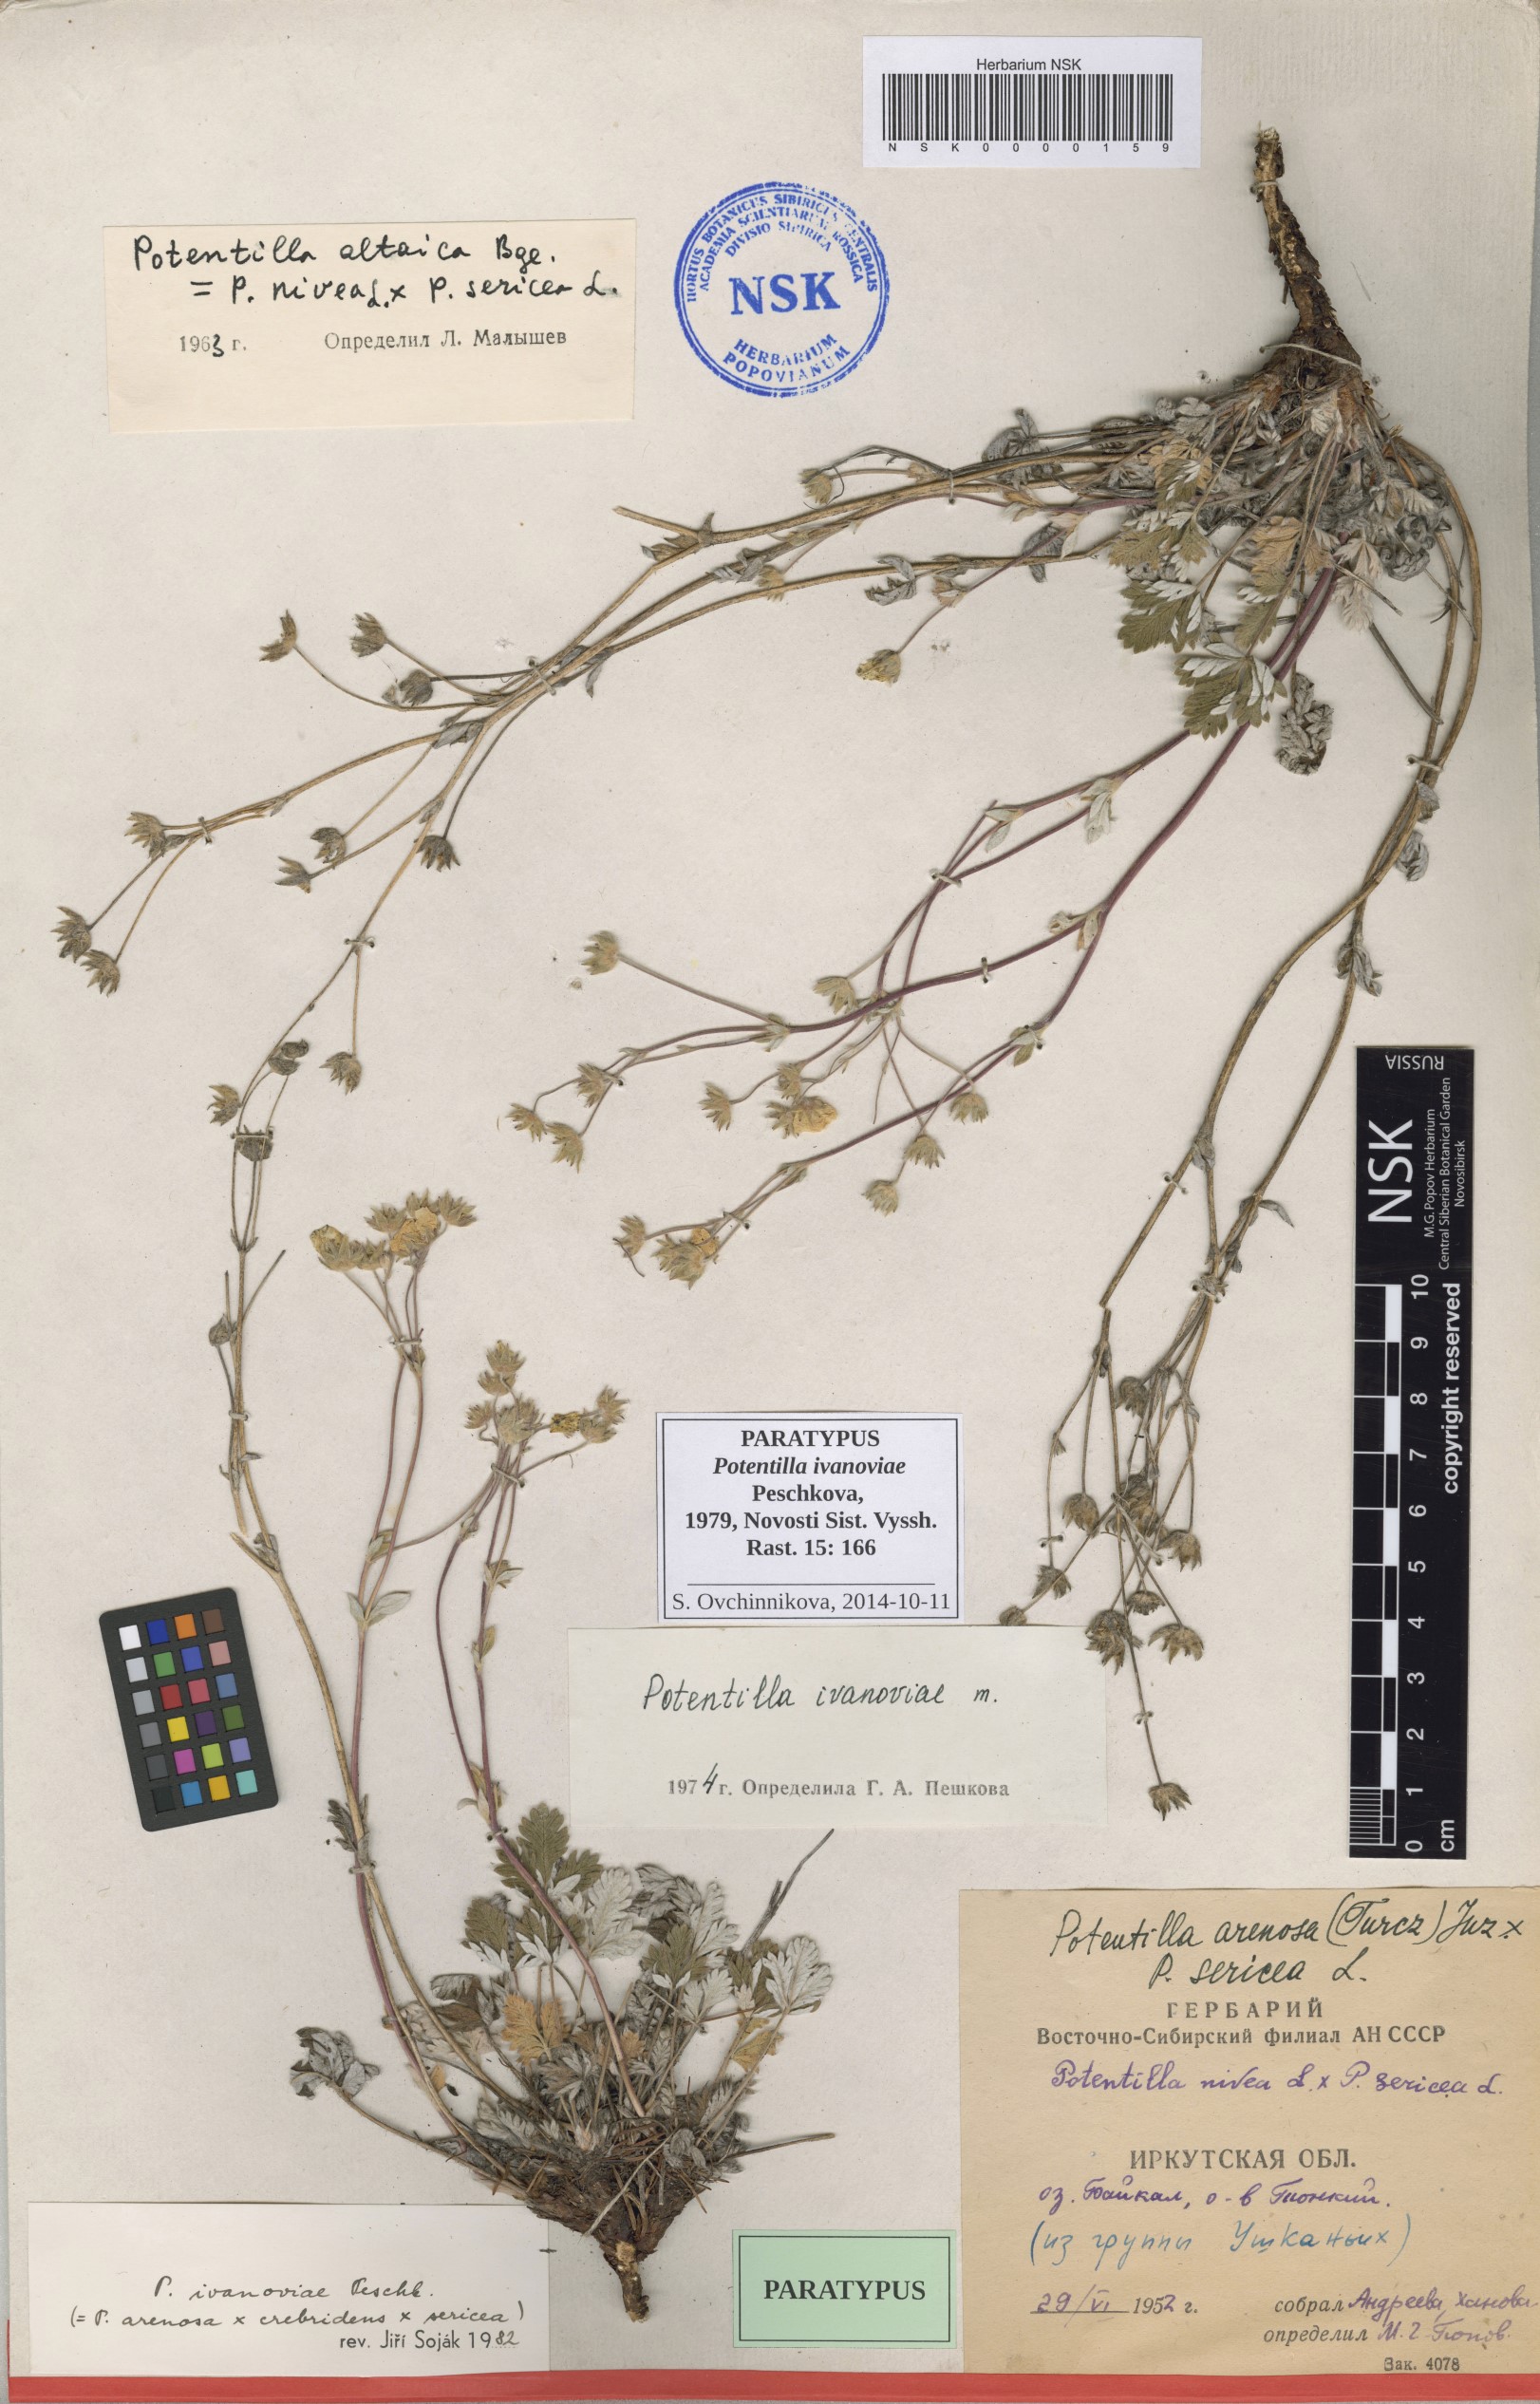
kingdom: Plantae
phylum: Tracheophyta
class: Magnoliopsida
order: Rosales
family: Rosaceae
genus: Potentilla
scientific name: Potentilla ivanoviae
